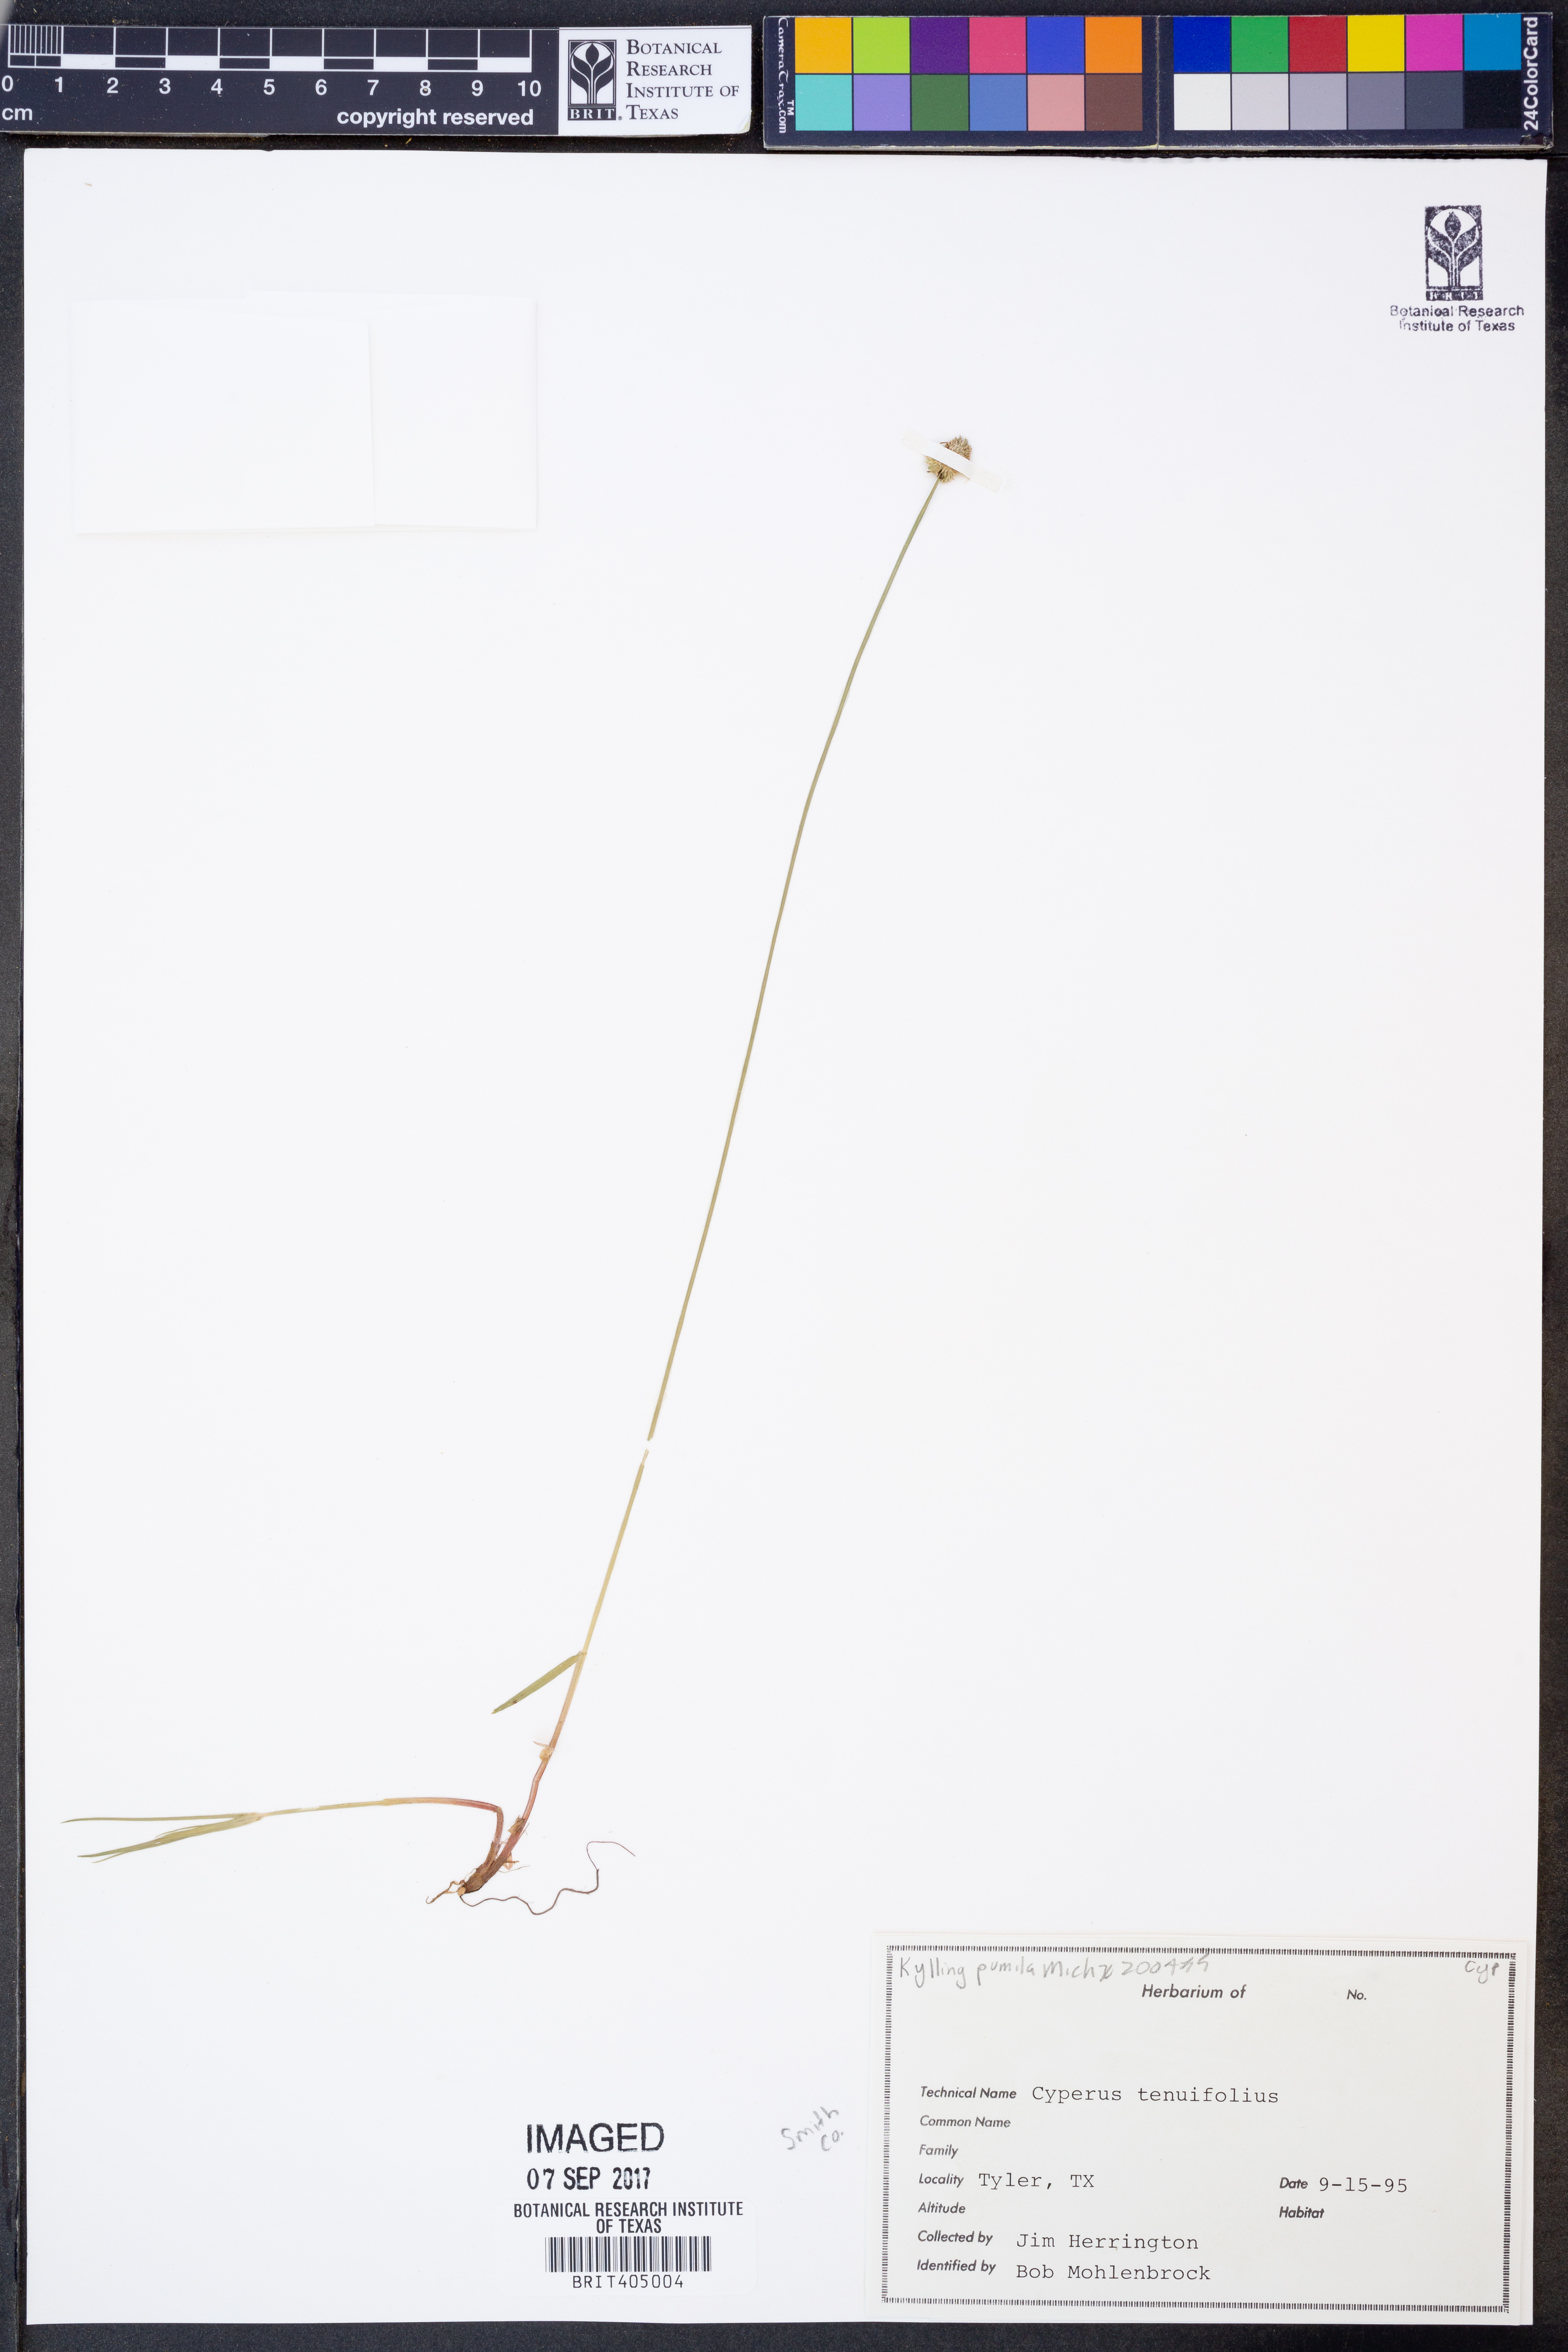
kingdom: Plantae
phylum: Tracheophyta
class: Liliopsida
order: Poales
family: Cyperaceae
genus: Cyperus
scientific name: Cyperus hortensis
